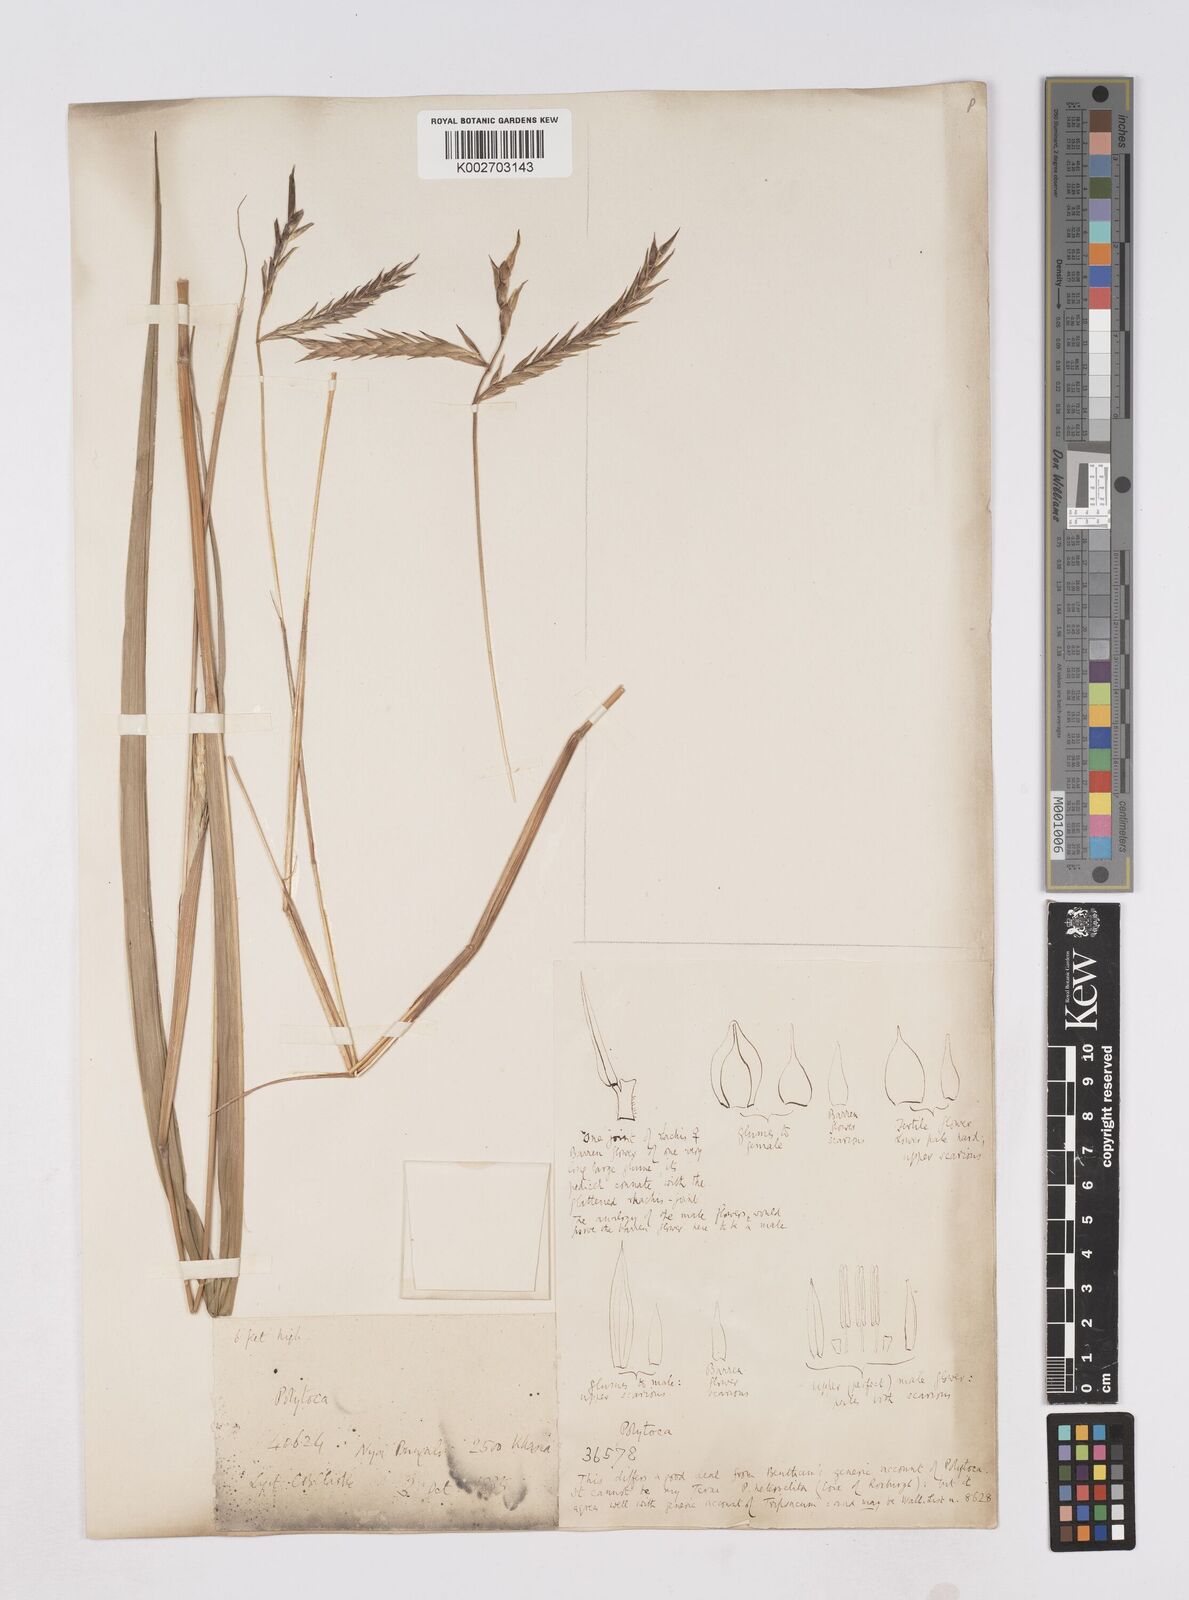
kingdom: Plantae
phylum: Tracheophyta
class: Liliopsida
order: Poales
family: Poaceae
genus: Polytoca
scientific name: Polytoca digitata
